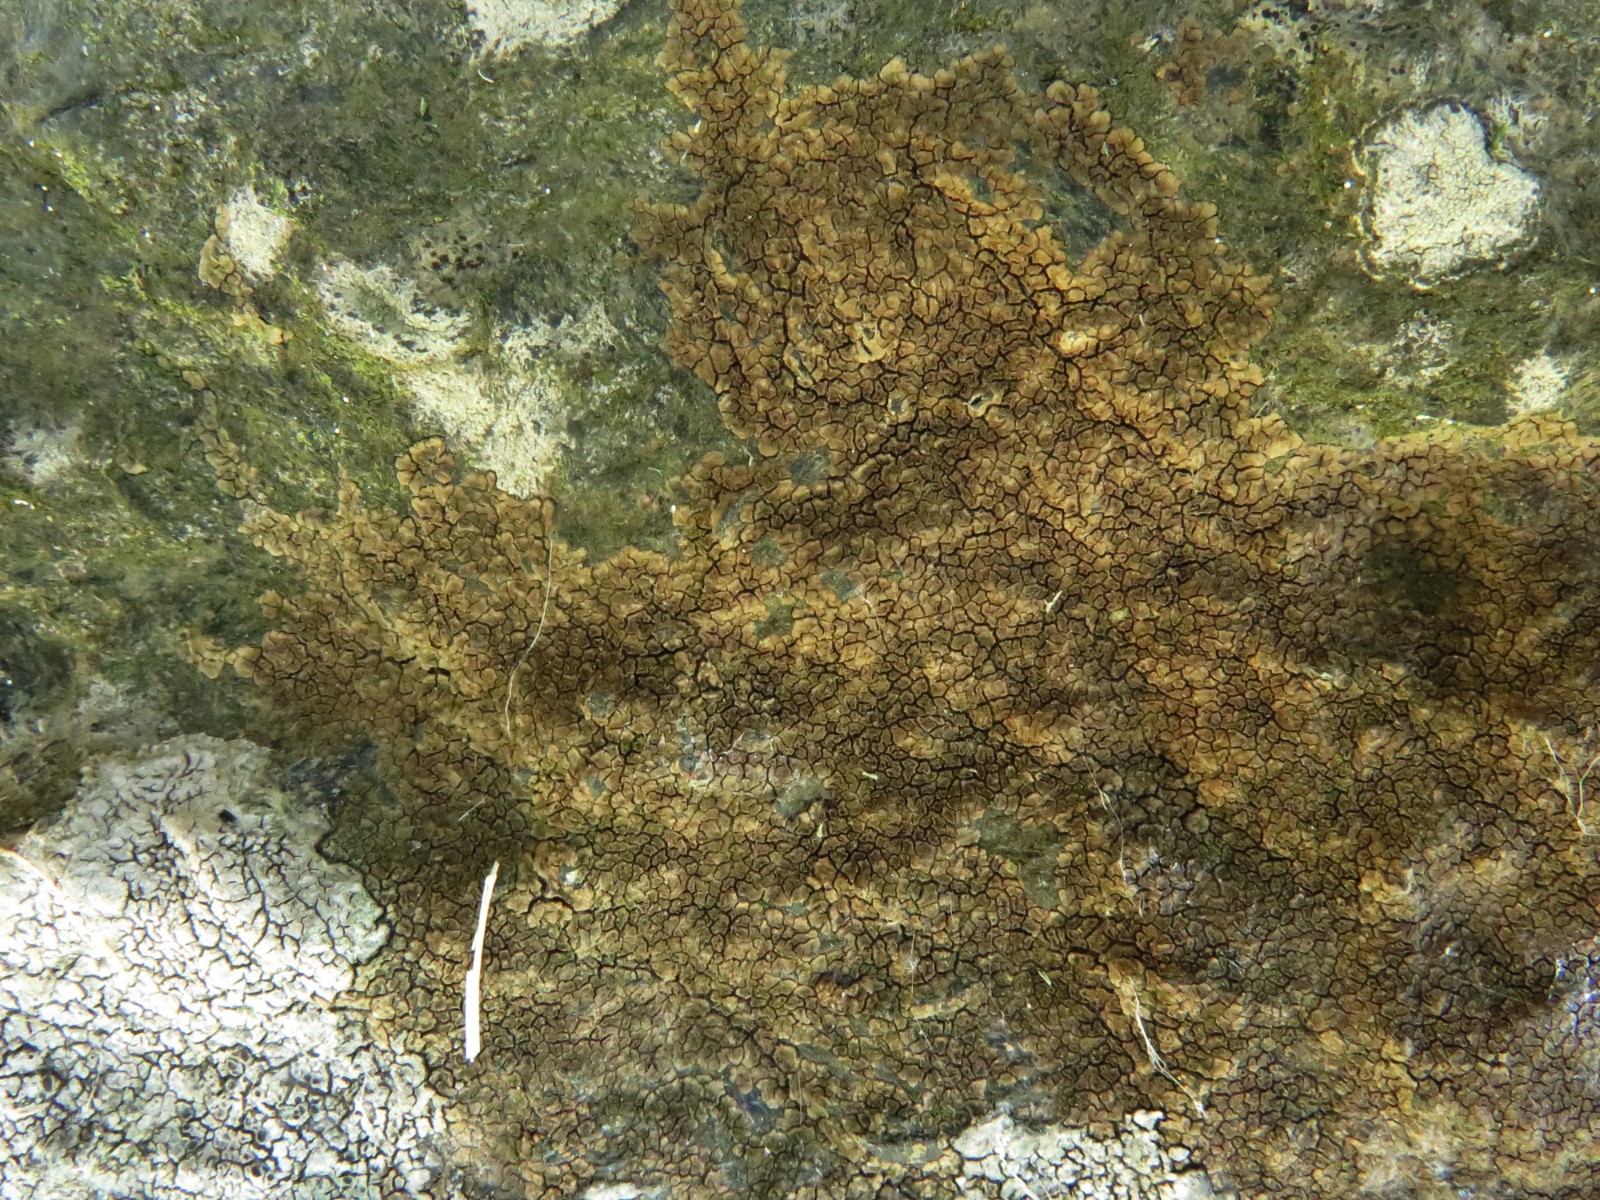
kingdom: Fungi
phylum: Ascomycota
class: Lecanoromycetes
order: Acarosporales
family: Acarosporaceae
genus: Acarospora
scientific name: Acarospora fuscata
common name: brun småsporelav
